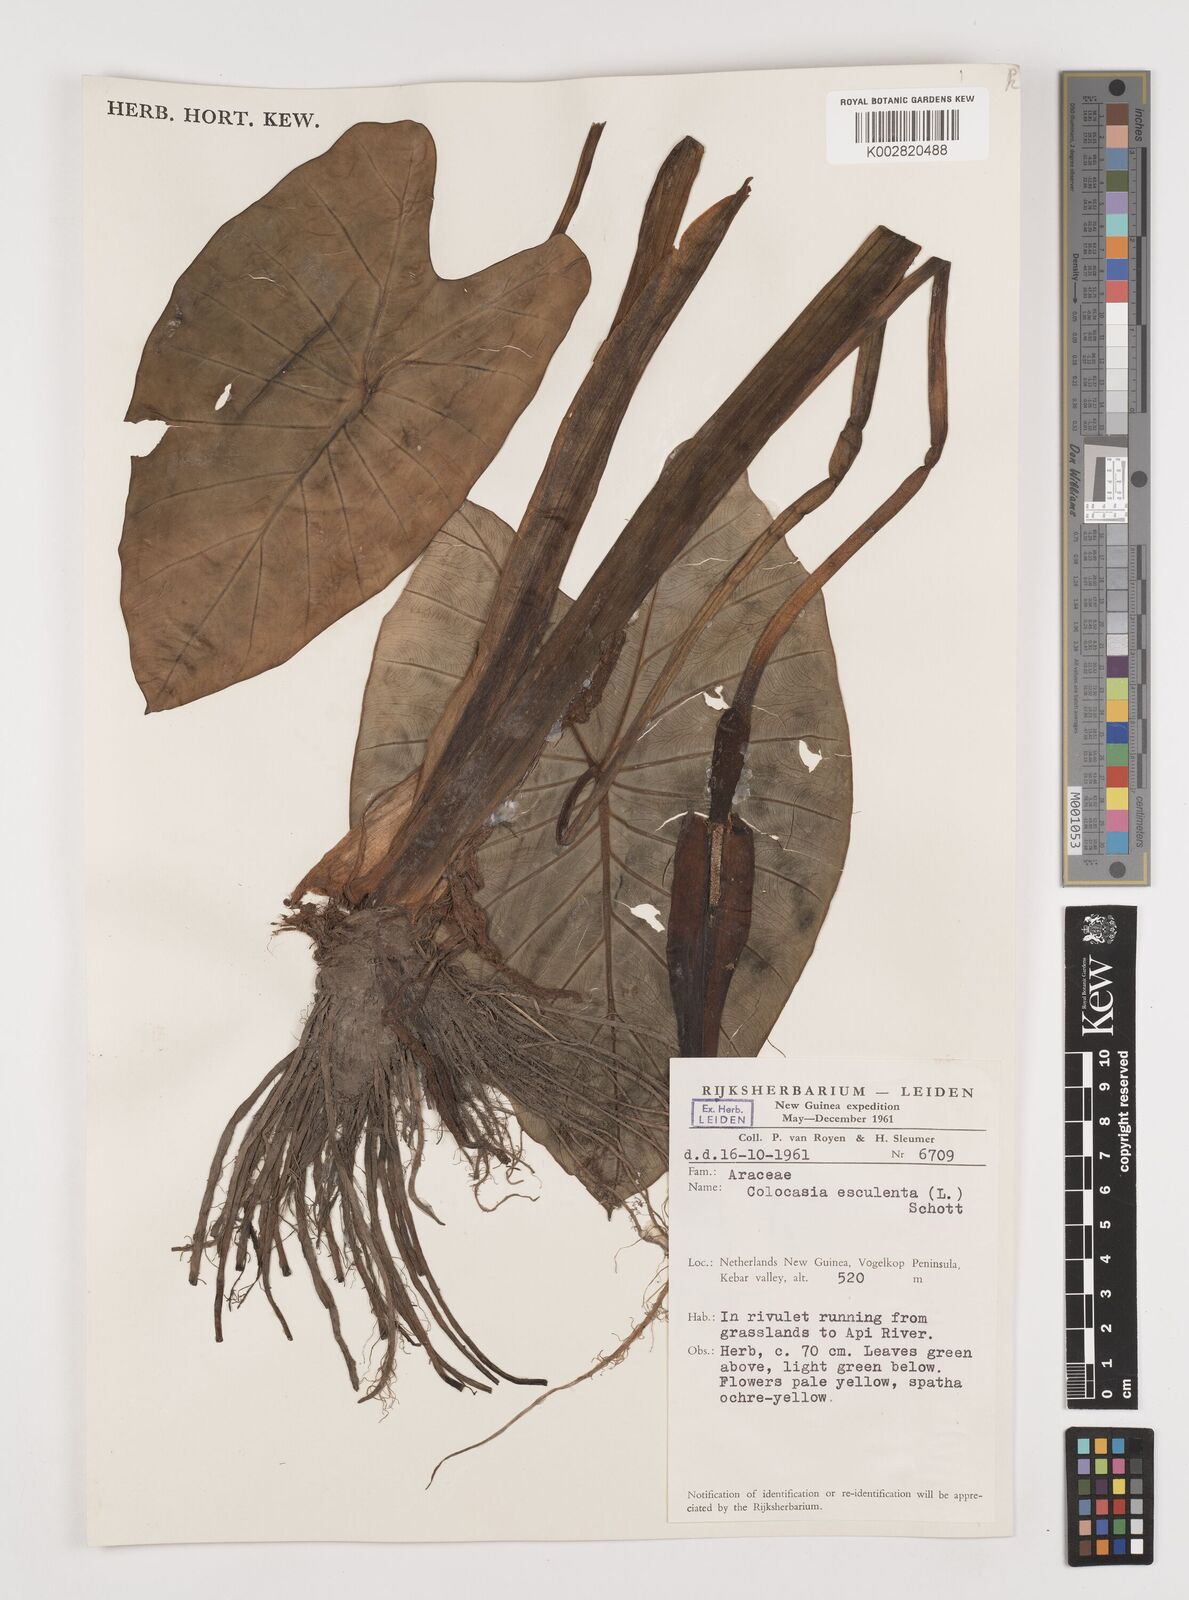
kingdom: Plantae
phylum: Tracheophyta
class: Liliopsida
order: Alismatales
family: Araceae
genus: Colocasia
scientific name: Colocasia esculenta
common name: Taro
